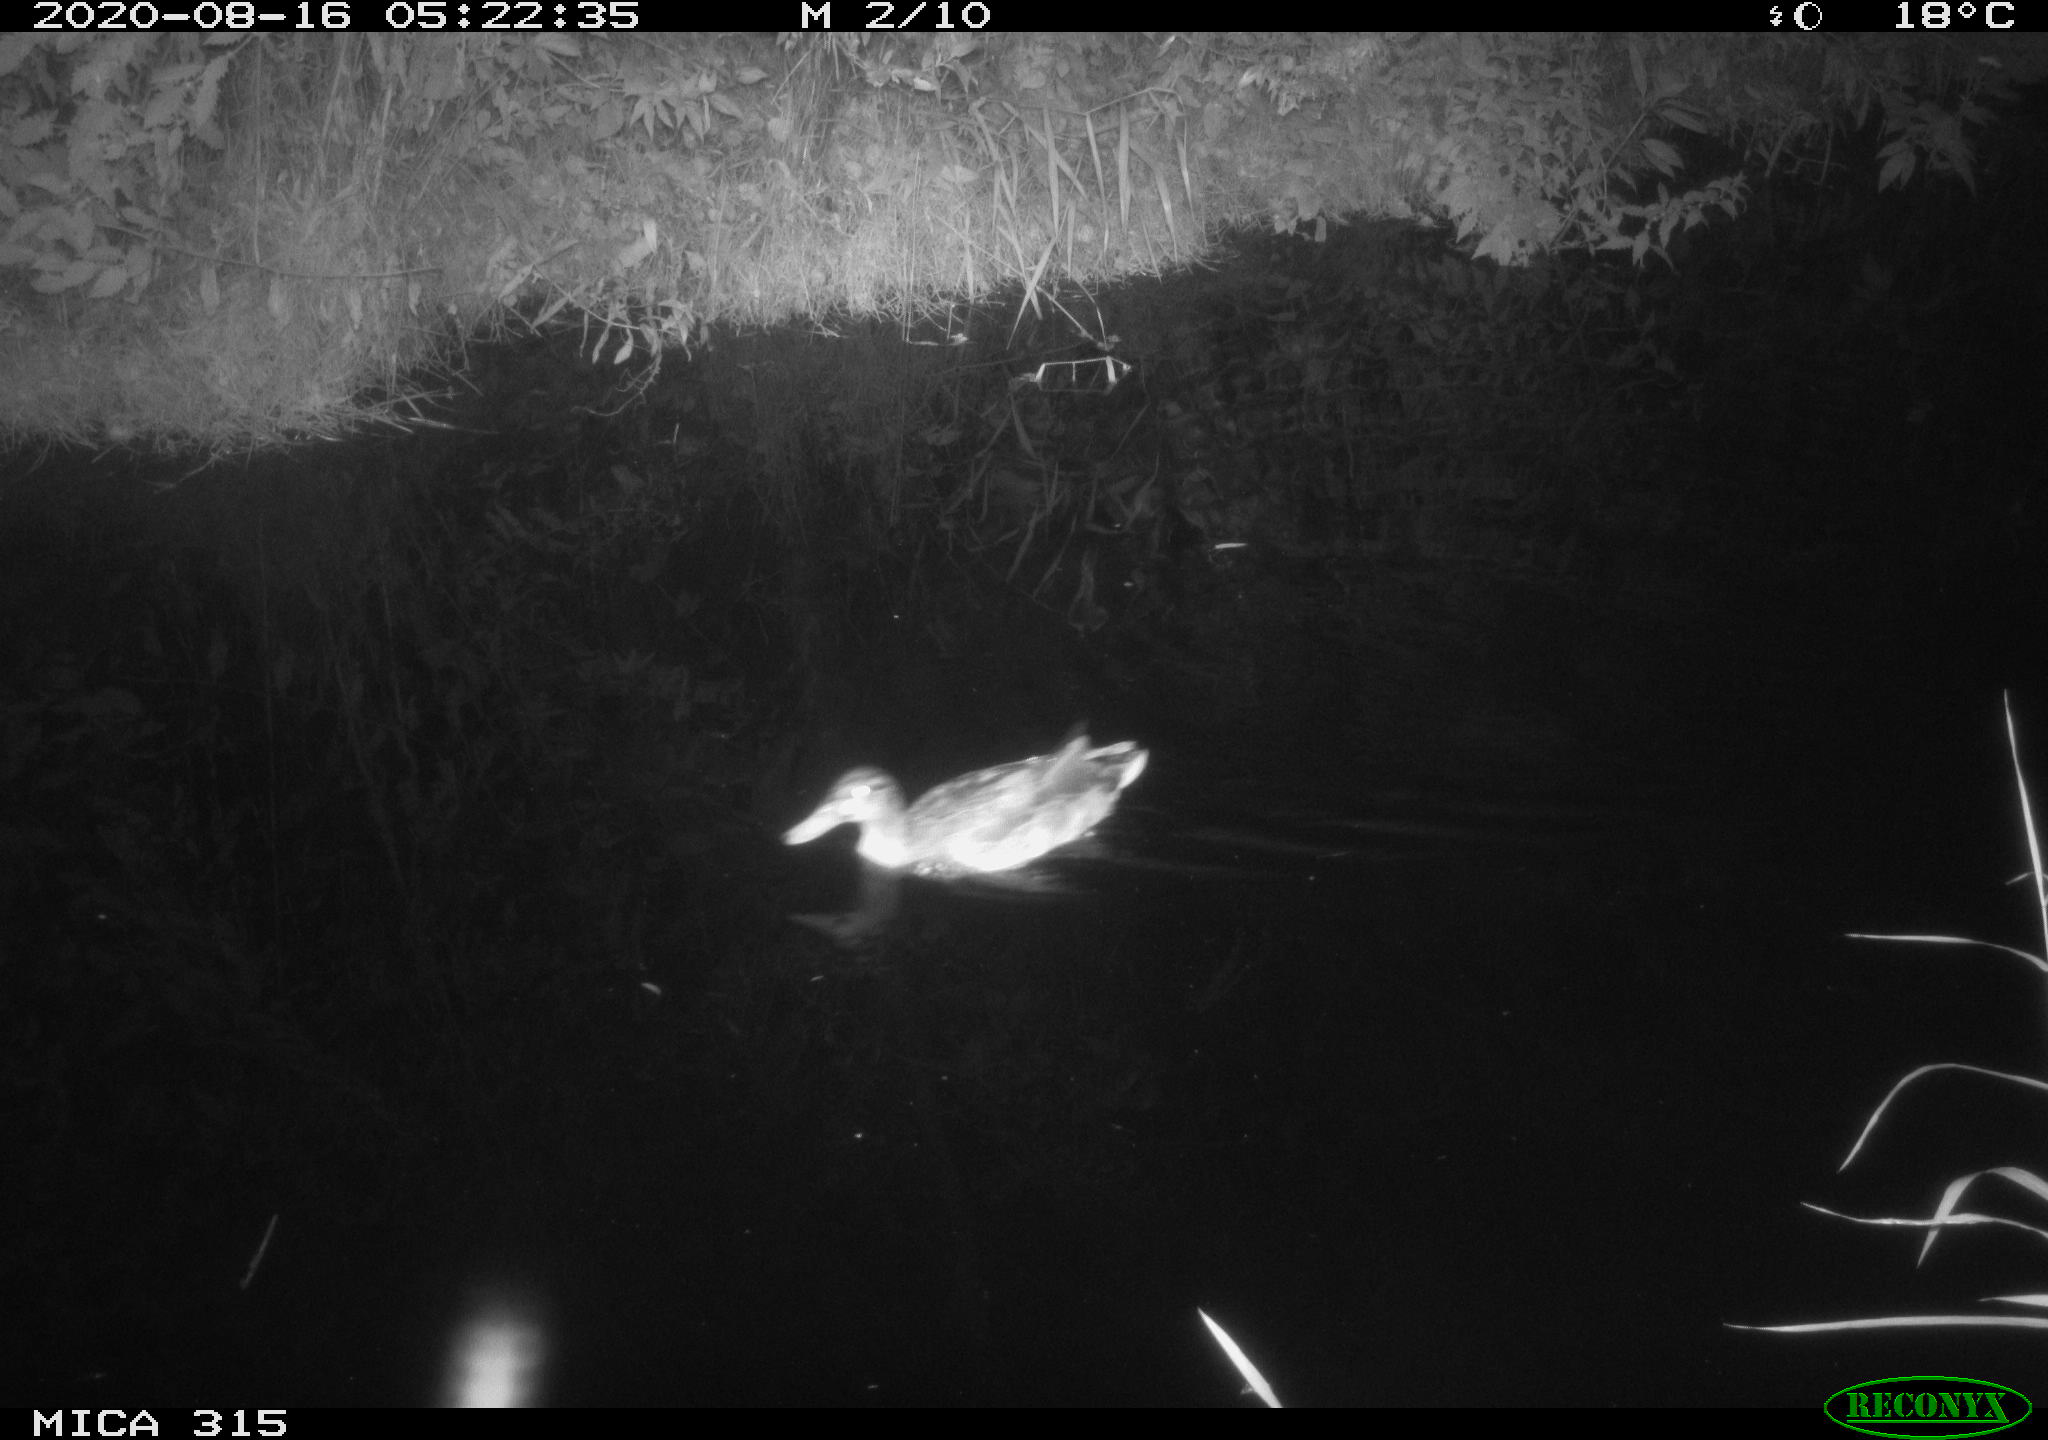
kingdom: Animalia
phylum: Chordata
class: Aves
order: Anseriformes
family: Anatidae
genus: Anas
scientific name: Anas platyrhynchos
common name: Mallard
